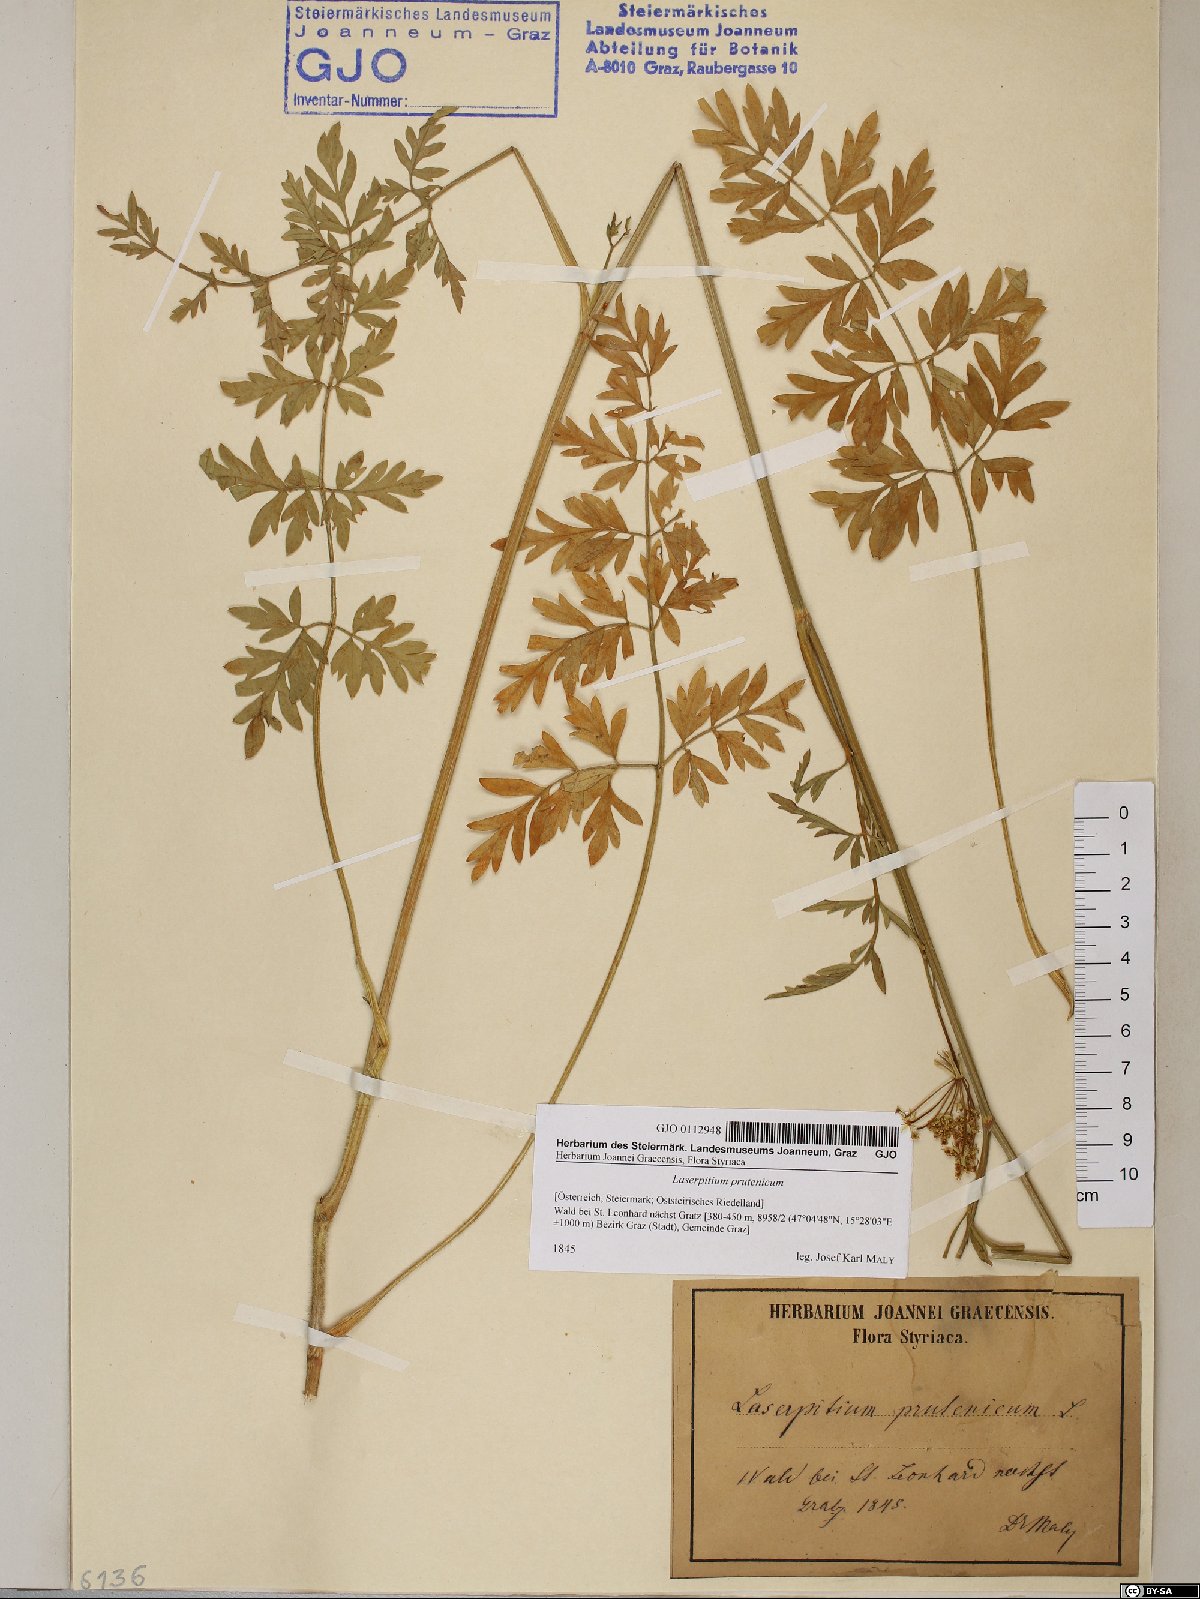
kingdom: Plantae
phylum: Tracheophyta
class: Magnoliopsida
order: Apiales
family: Apiaceae
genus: Silphiodaucus
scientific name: Silphiodaucus prutenicus
